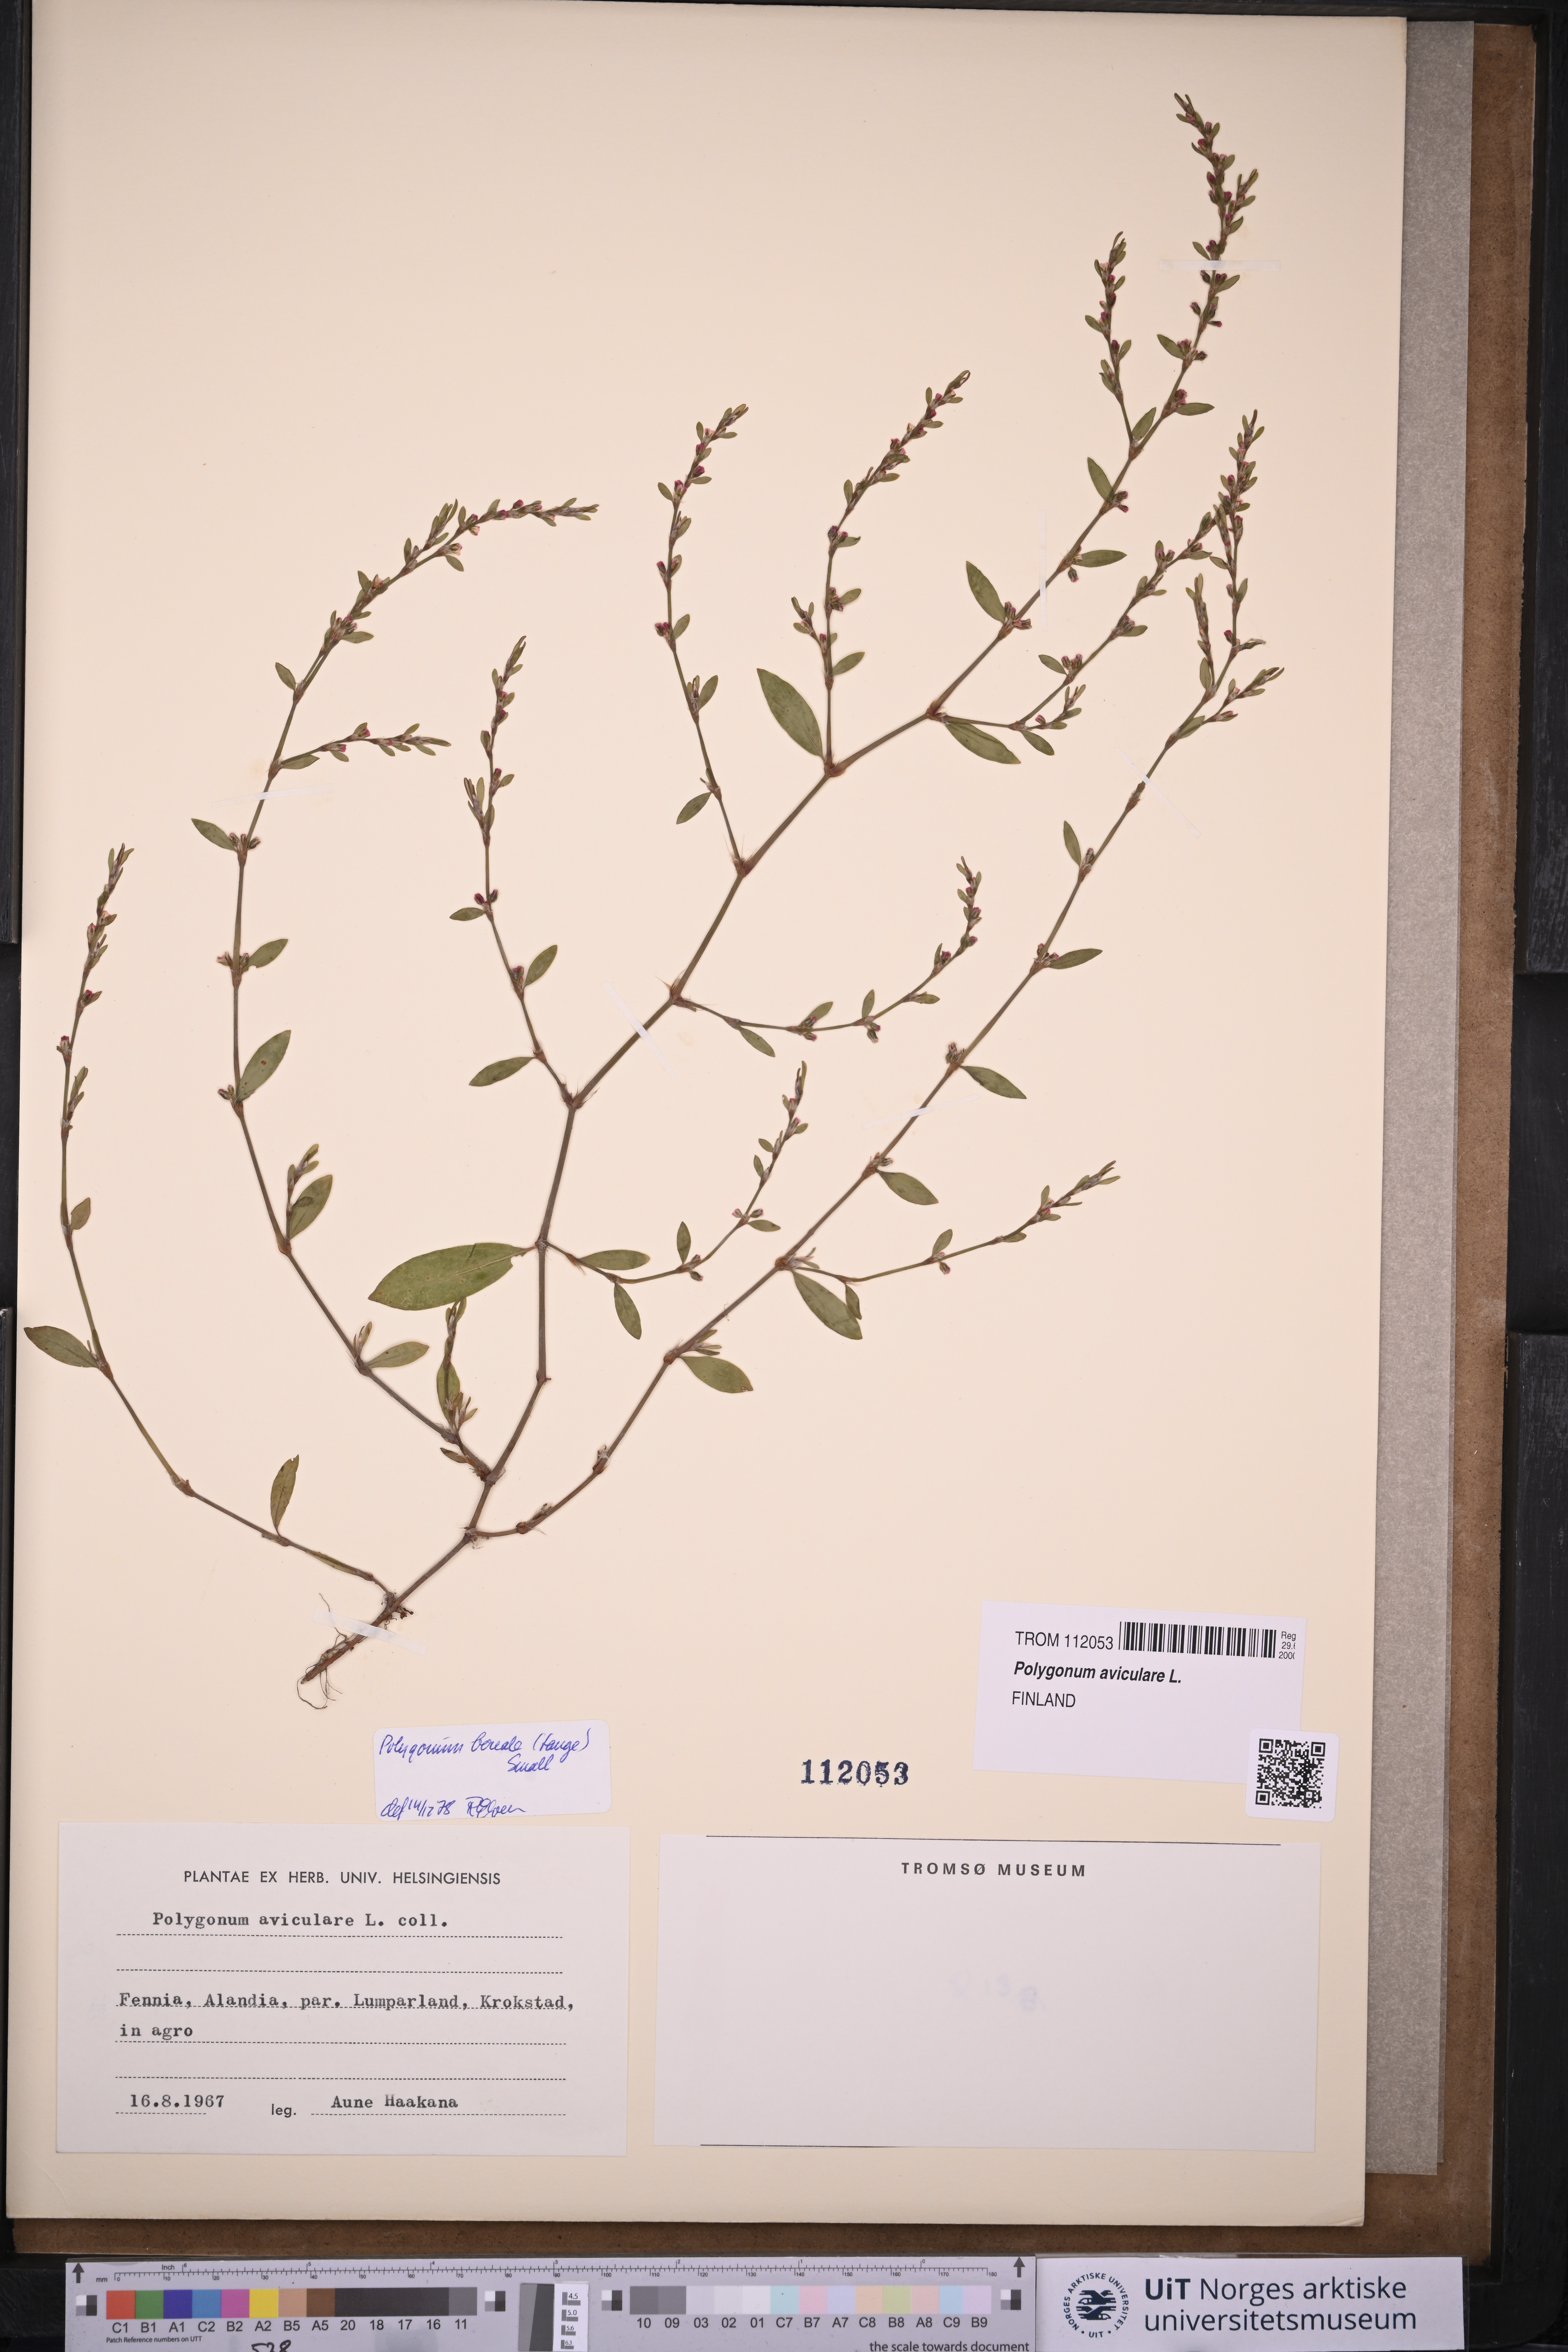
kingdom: Plantae
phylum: Tracheophyta
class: Magnoliopsida
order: Caryophyllales
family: Polygonaceae
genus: Polygonum
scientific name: Polygonum aviculare
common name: Prostrate knotweed
